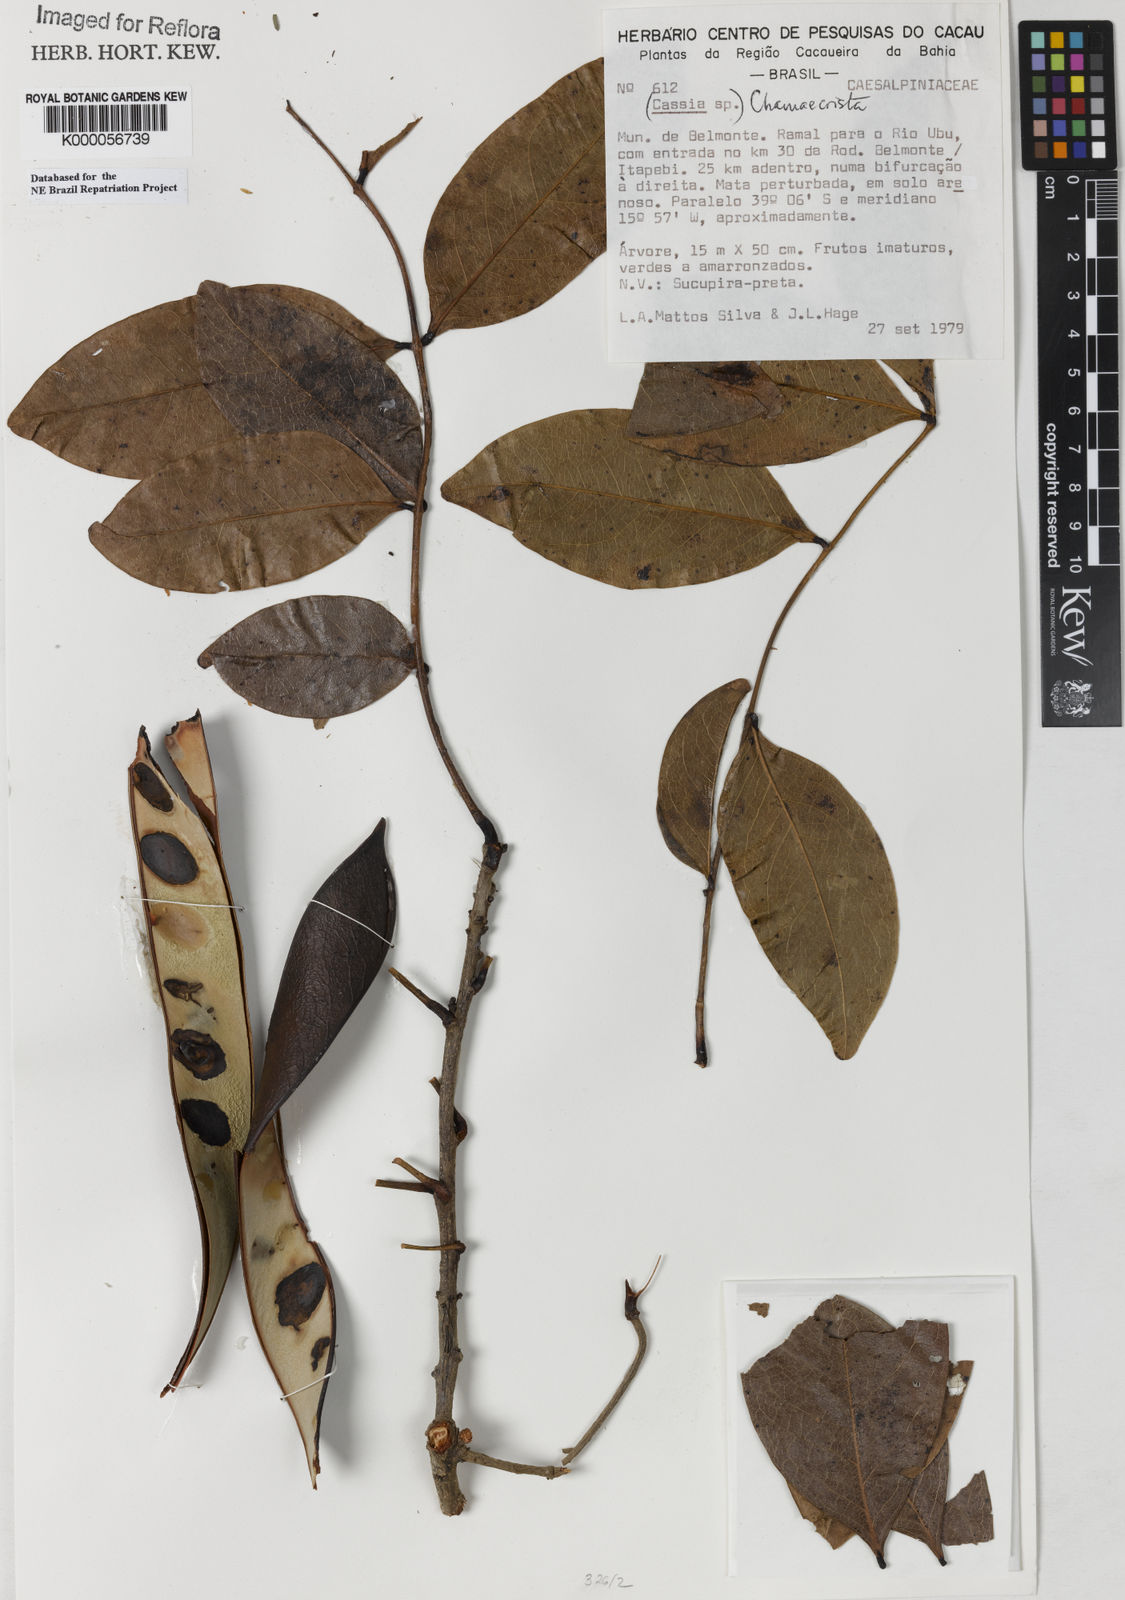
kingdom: Plantae
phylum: Tracheophyta
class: Magnoliopsida
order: Fabales
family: Fabaceae
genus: Chamaecrista
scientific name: Chamaecrista
